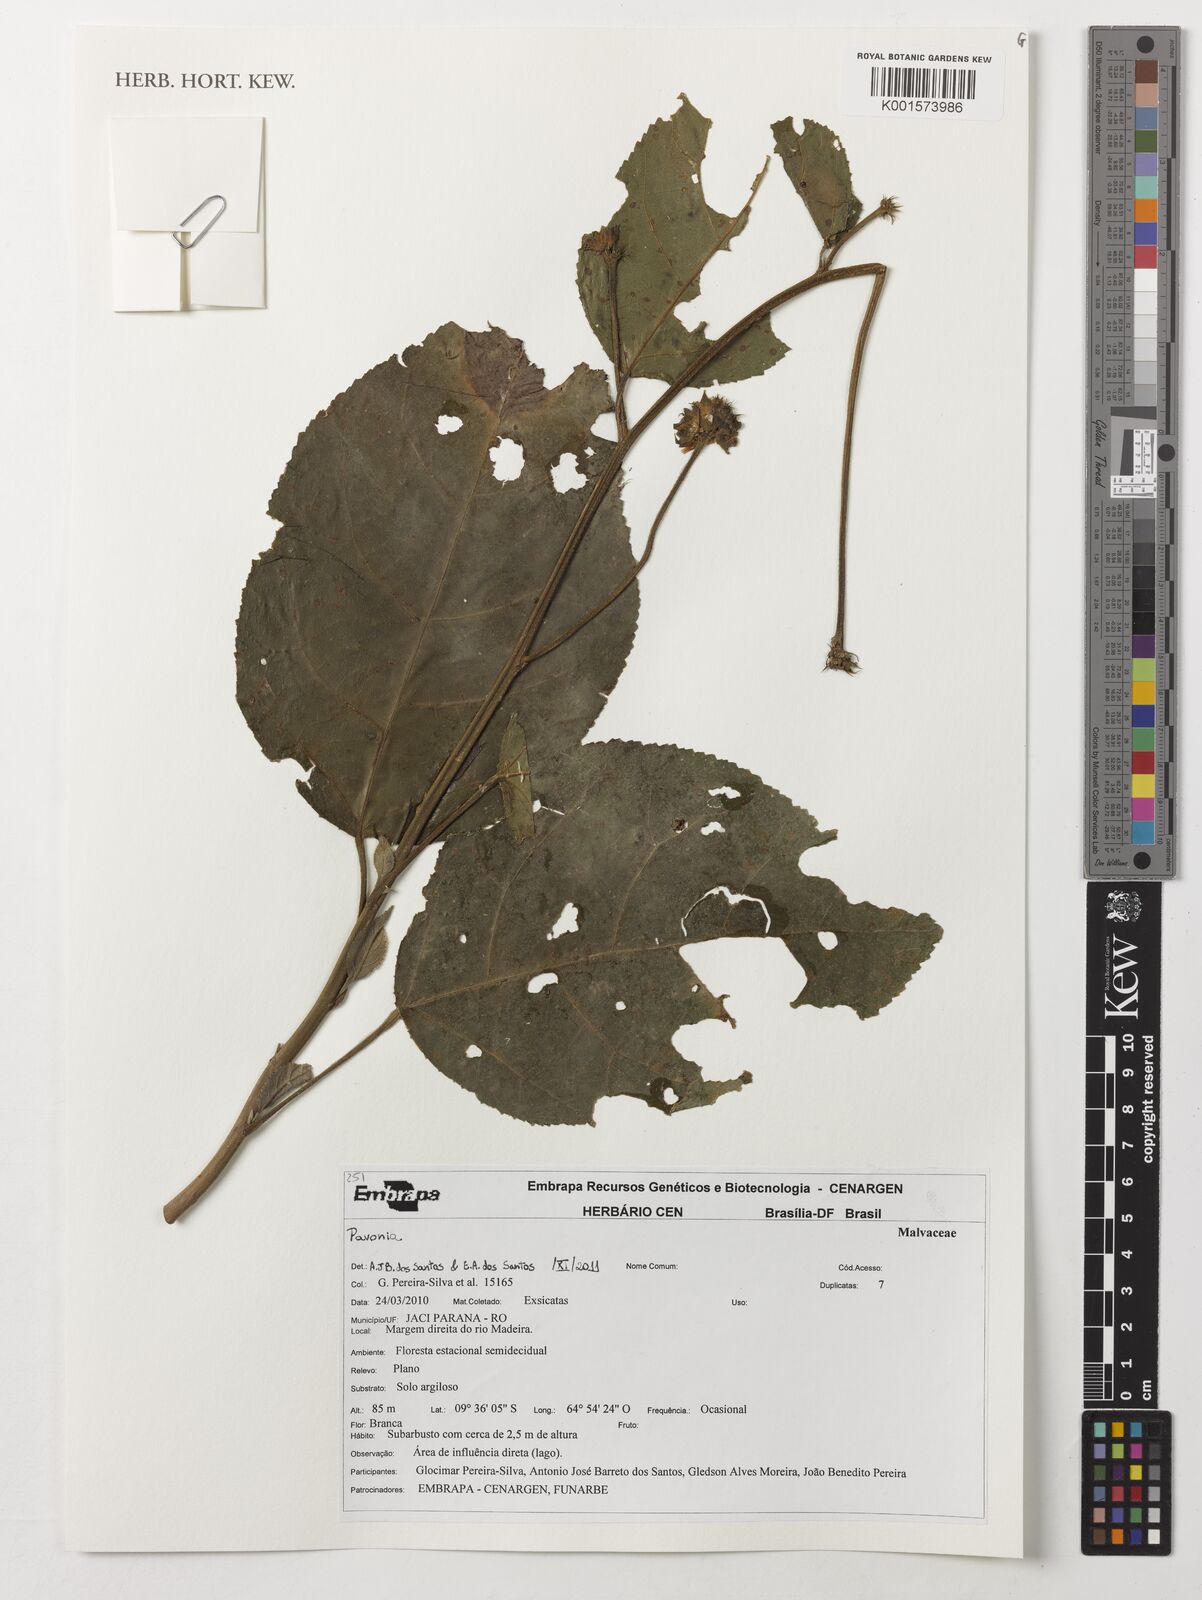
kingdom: Plantae
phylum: Tracheophyta
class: Magnoliopsida
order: Malvales
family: Malvaceae
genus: Pavonia
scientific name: Pavonia
